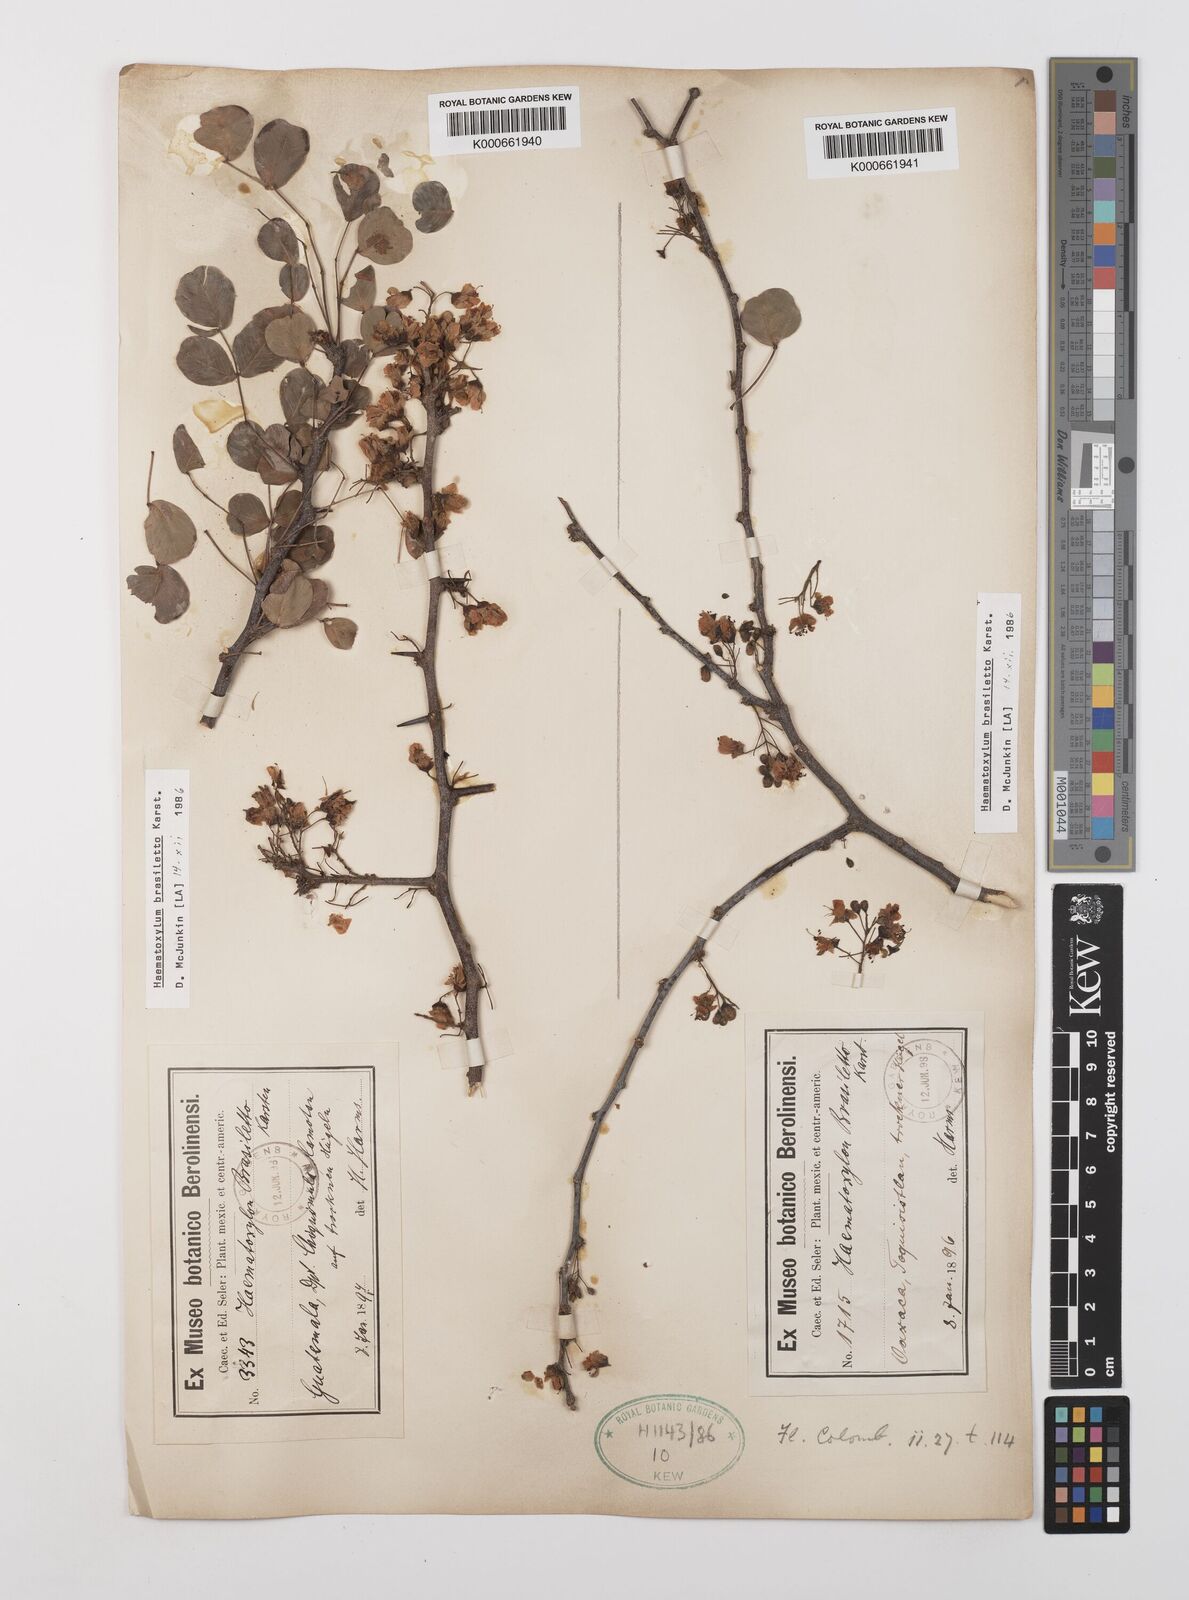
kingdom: Plantae
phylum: Tracheophyta
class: Magnoliopsida
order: Fabales
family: Fabaceae
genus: Haematoxylum
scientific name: Haematoxylum brasiletto
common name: Peachwood
